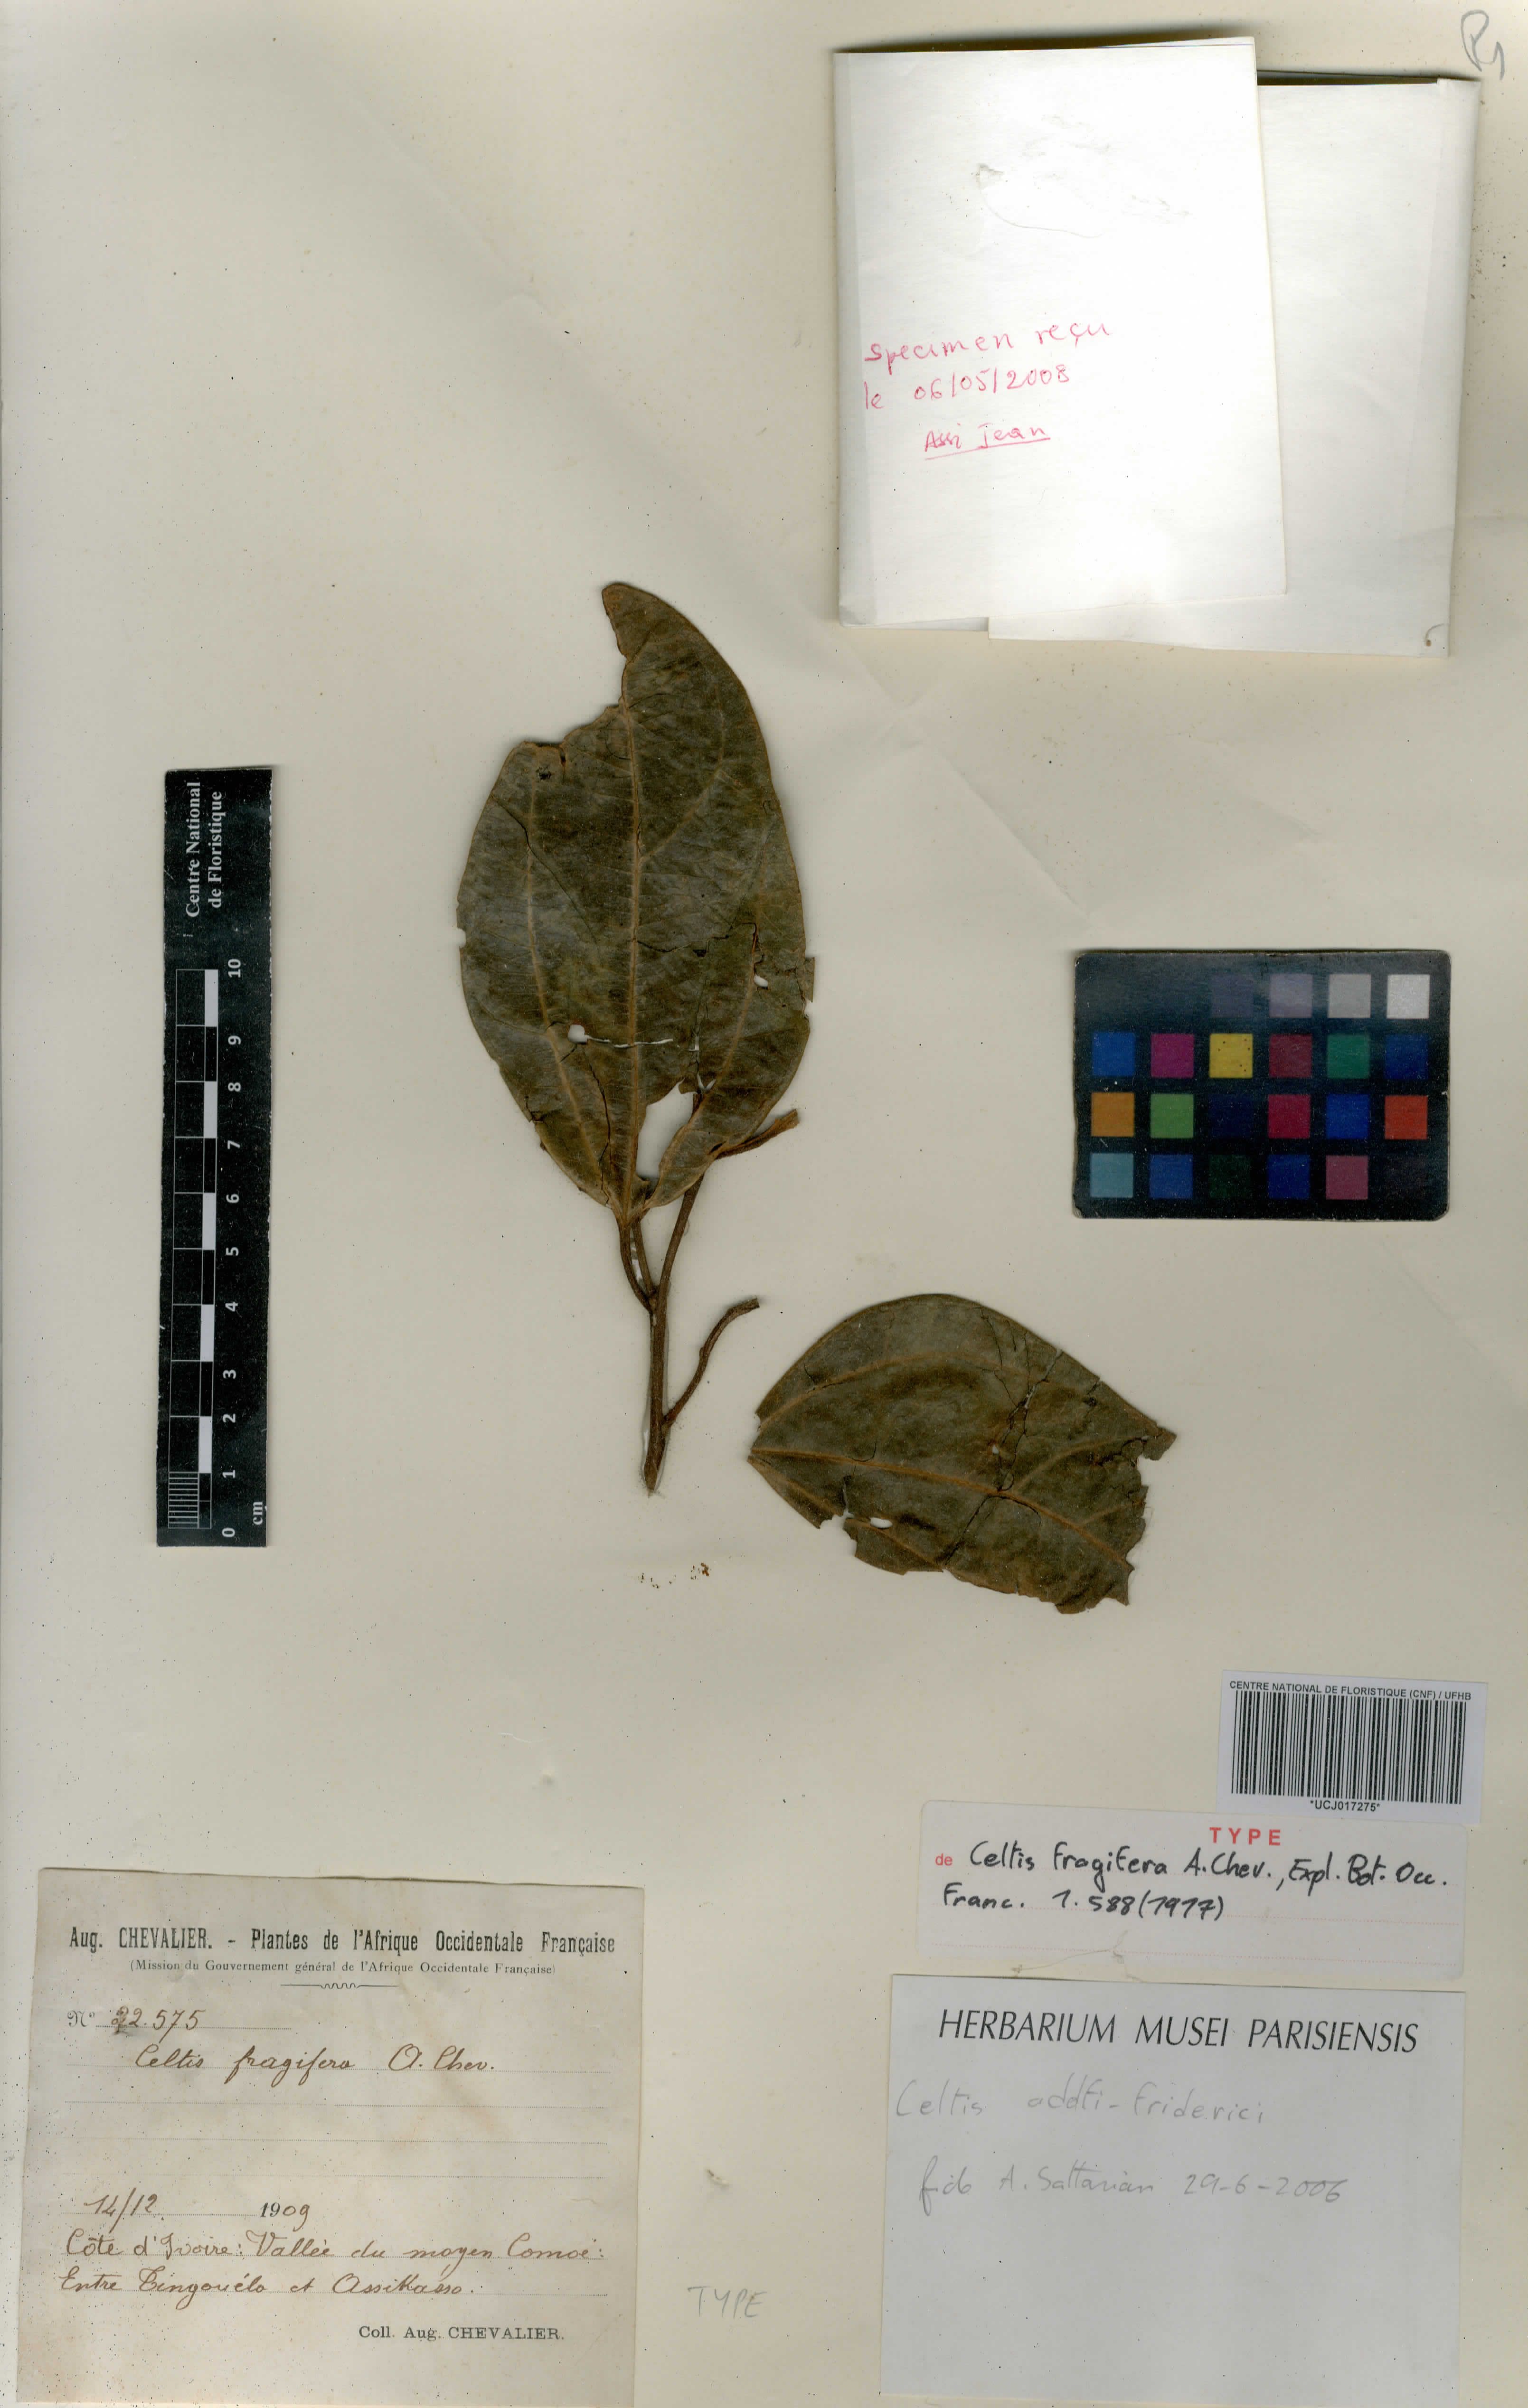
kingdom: Plantae
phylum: Tracheophyta
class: Magnoliopsida
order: Rosales
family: Cannabaceae
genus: Celtis
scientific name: Celtis adolfi-friderici
